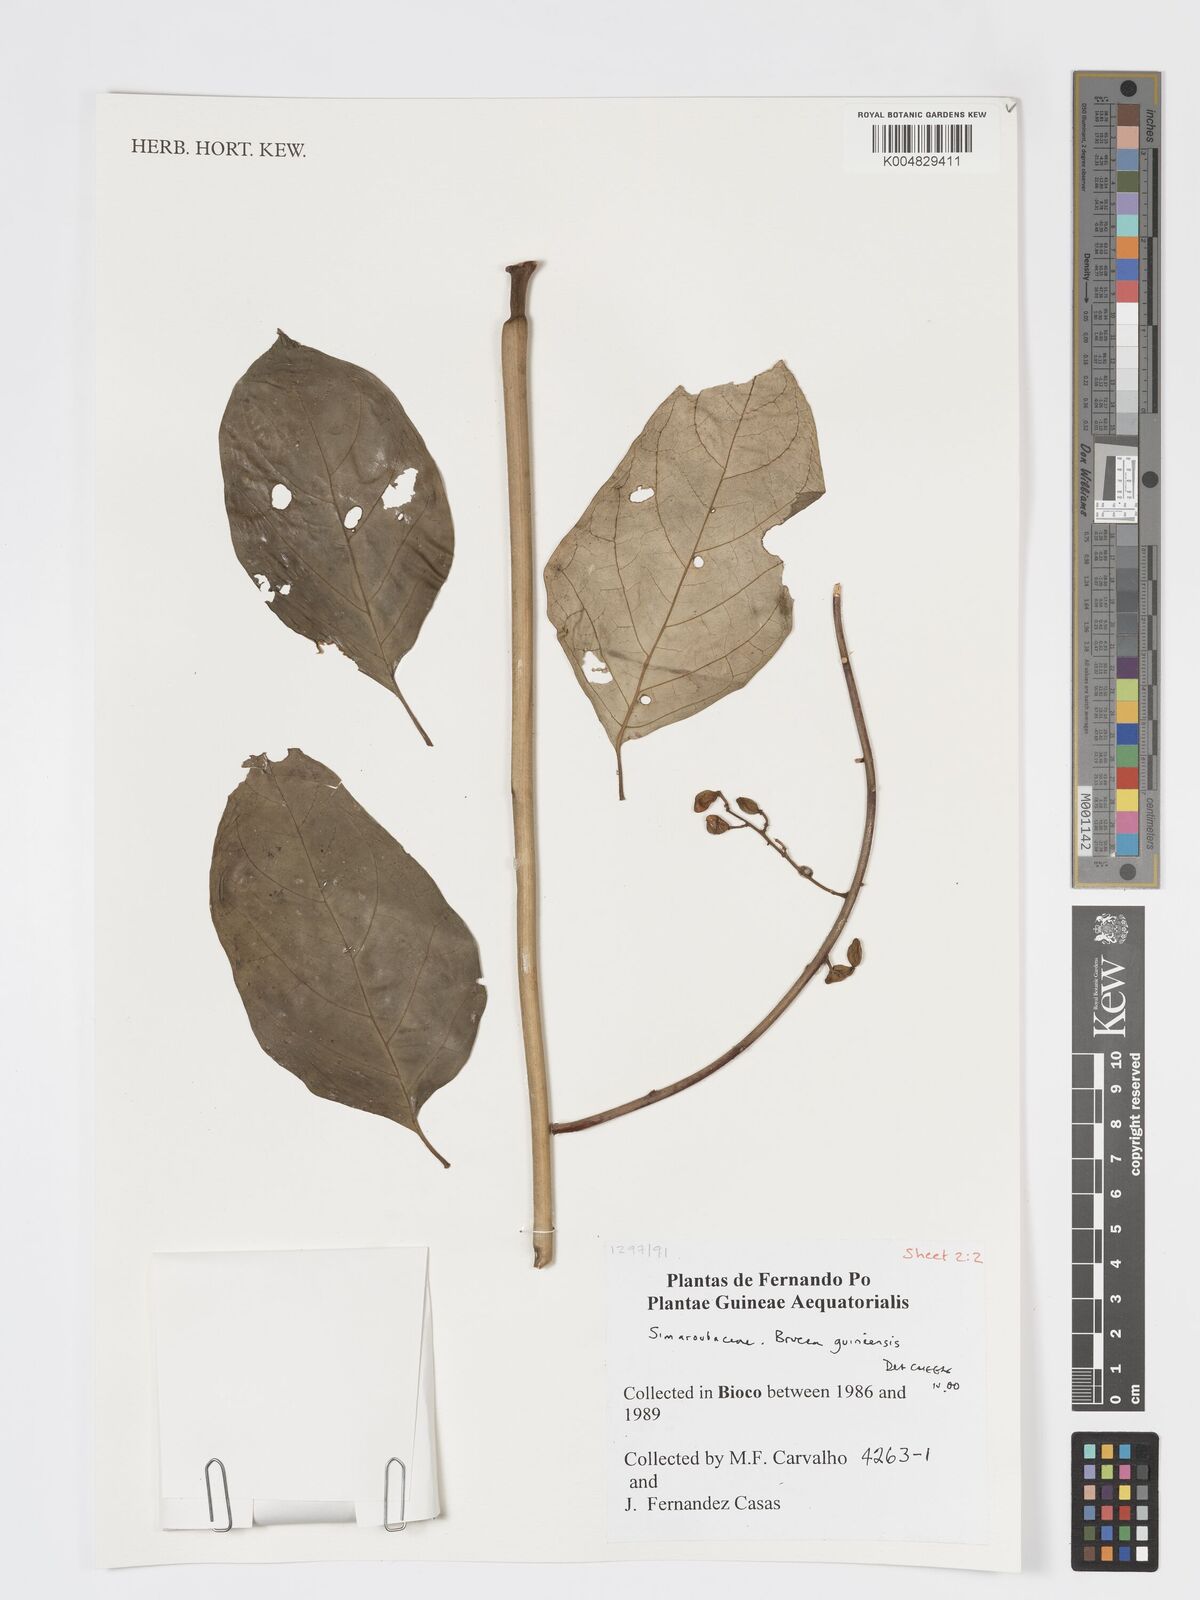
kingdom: Plantae
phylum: Tracheophyta
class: Magnoliopsida
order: Sapindales
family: Anacardiaceae
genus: Trichoscypha
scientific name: Trichoscypha smythei
